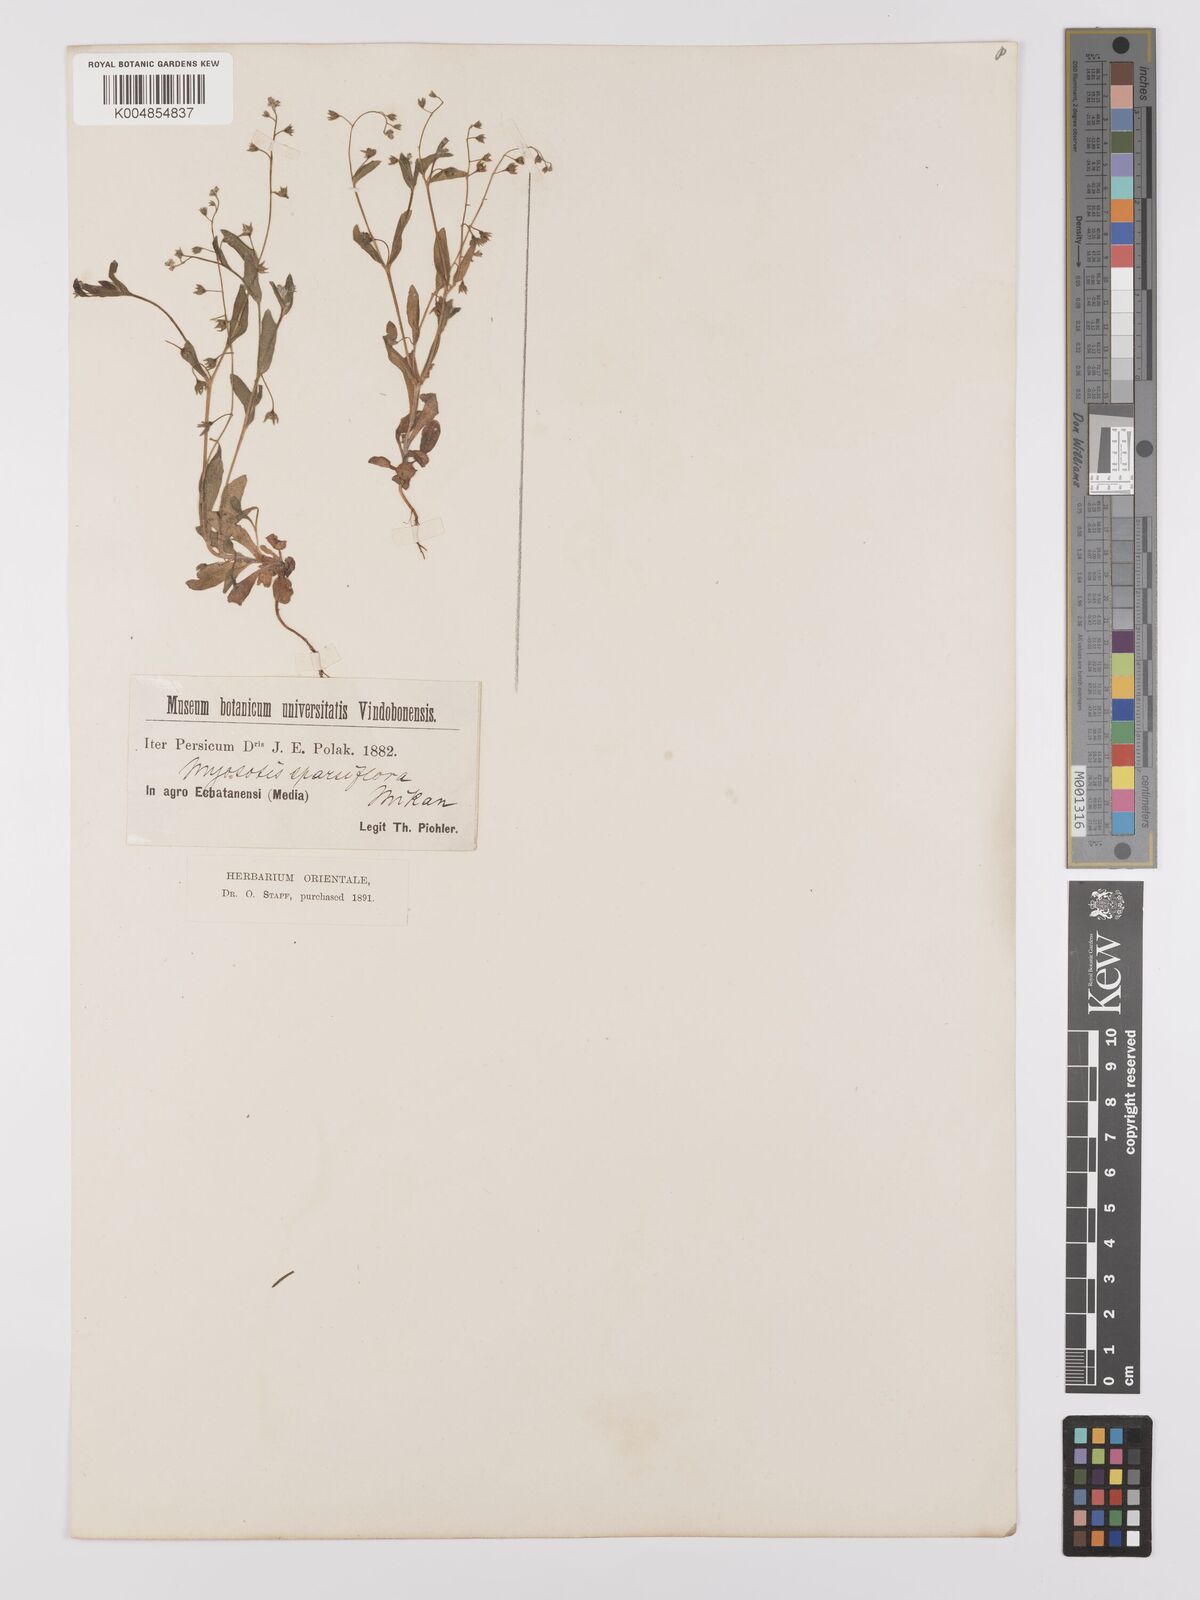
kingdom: Plantae
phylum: Tracheophyta
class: Magnoliopsida
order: Boraginales
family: Boraginaceae
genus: Myosotis
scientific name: Myosotis
